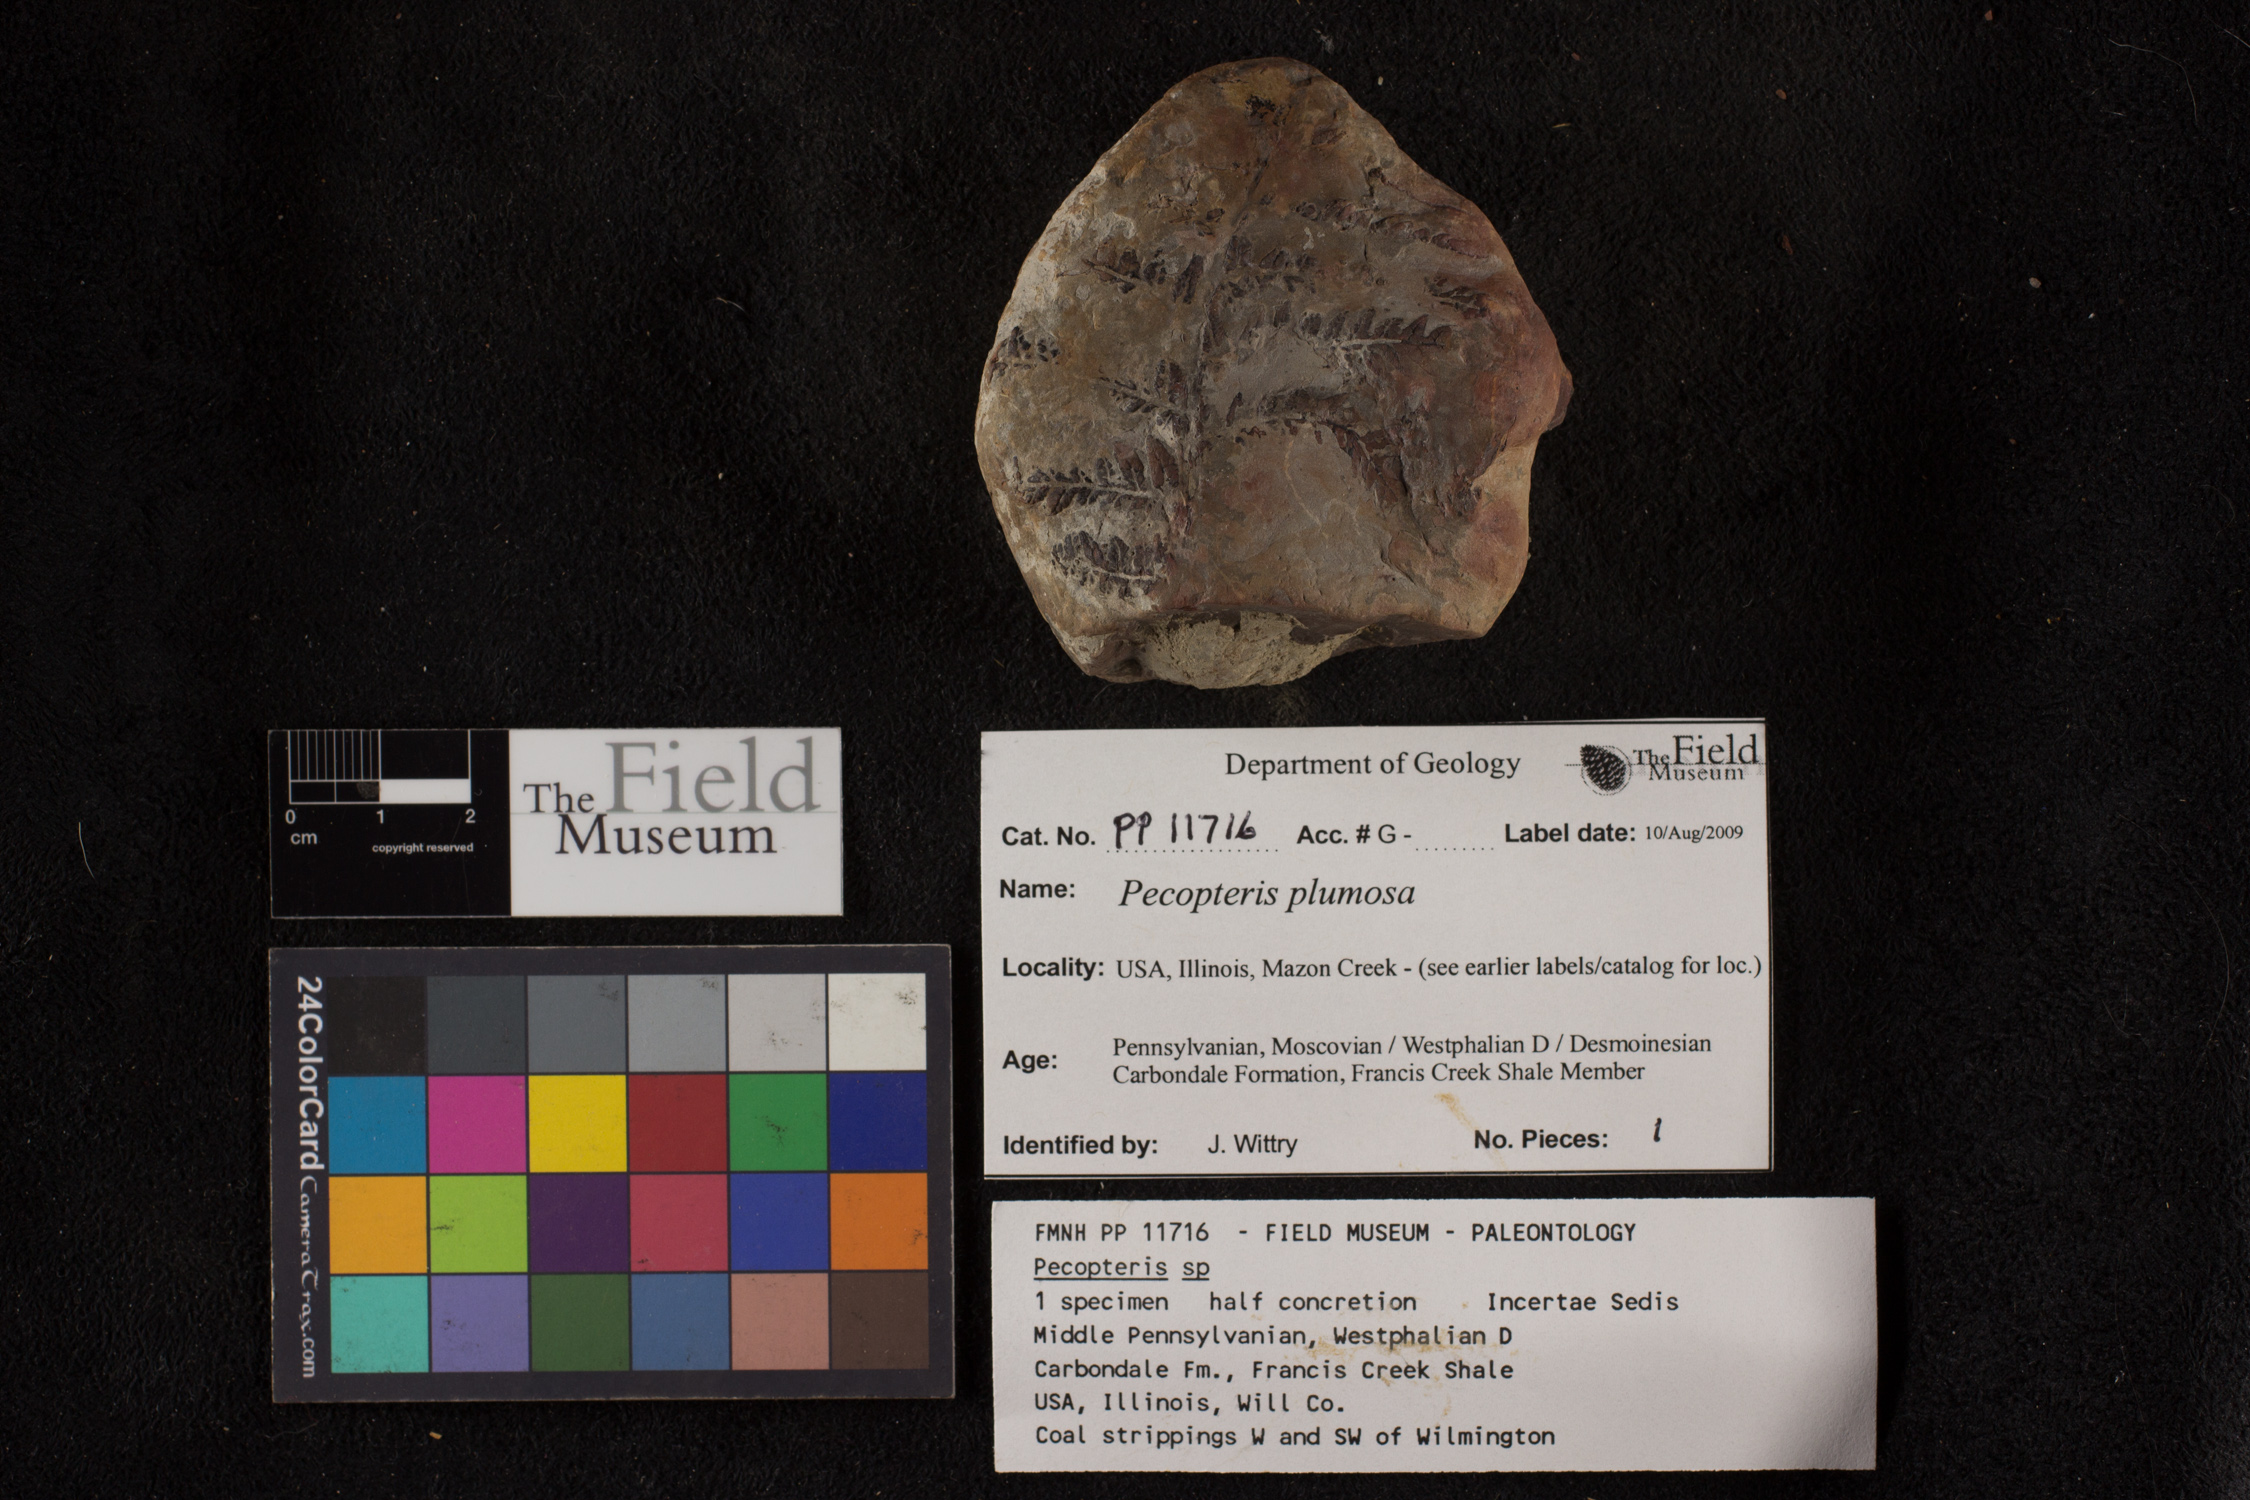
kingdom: Plantae
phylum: Tracheophyta
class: Polypodiopsida
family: Tedeleaceae
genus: Senftenbergia
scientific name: Senftenbergia
